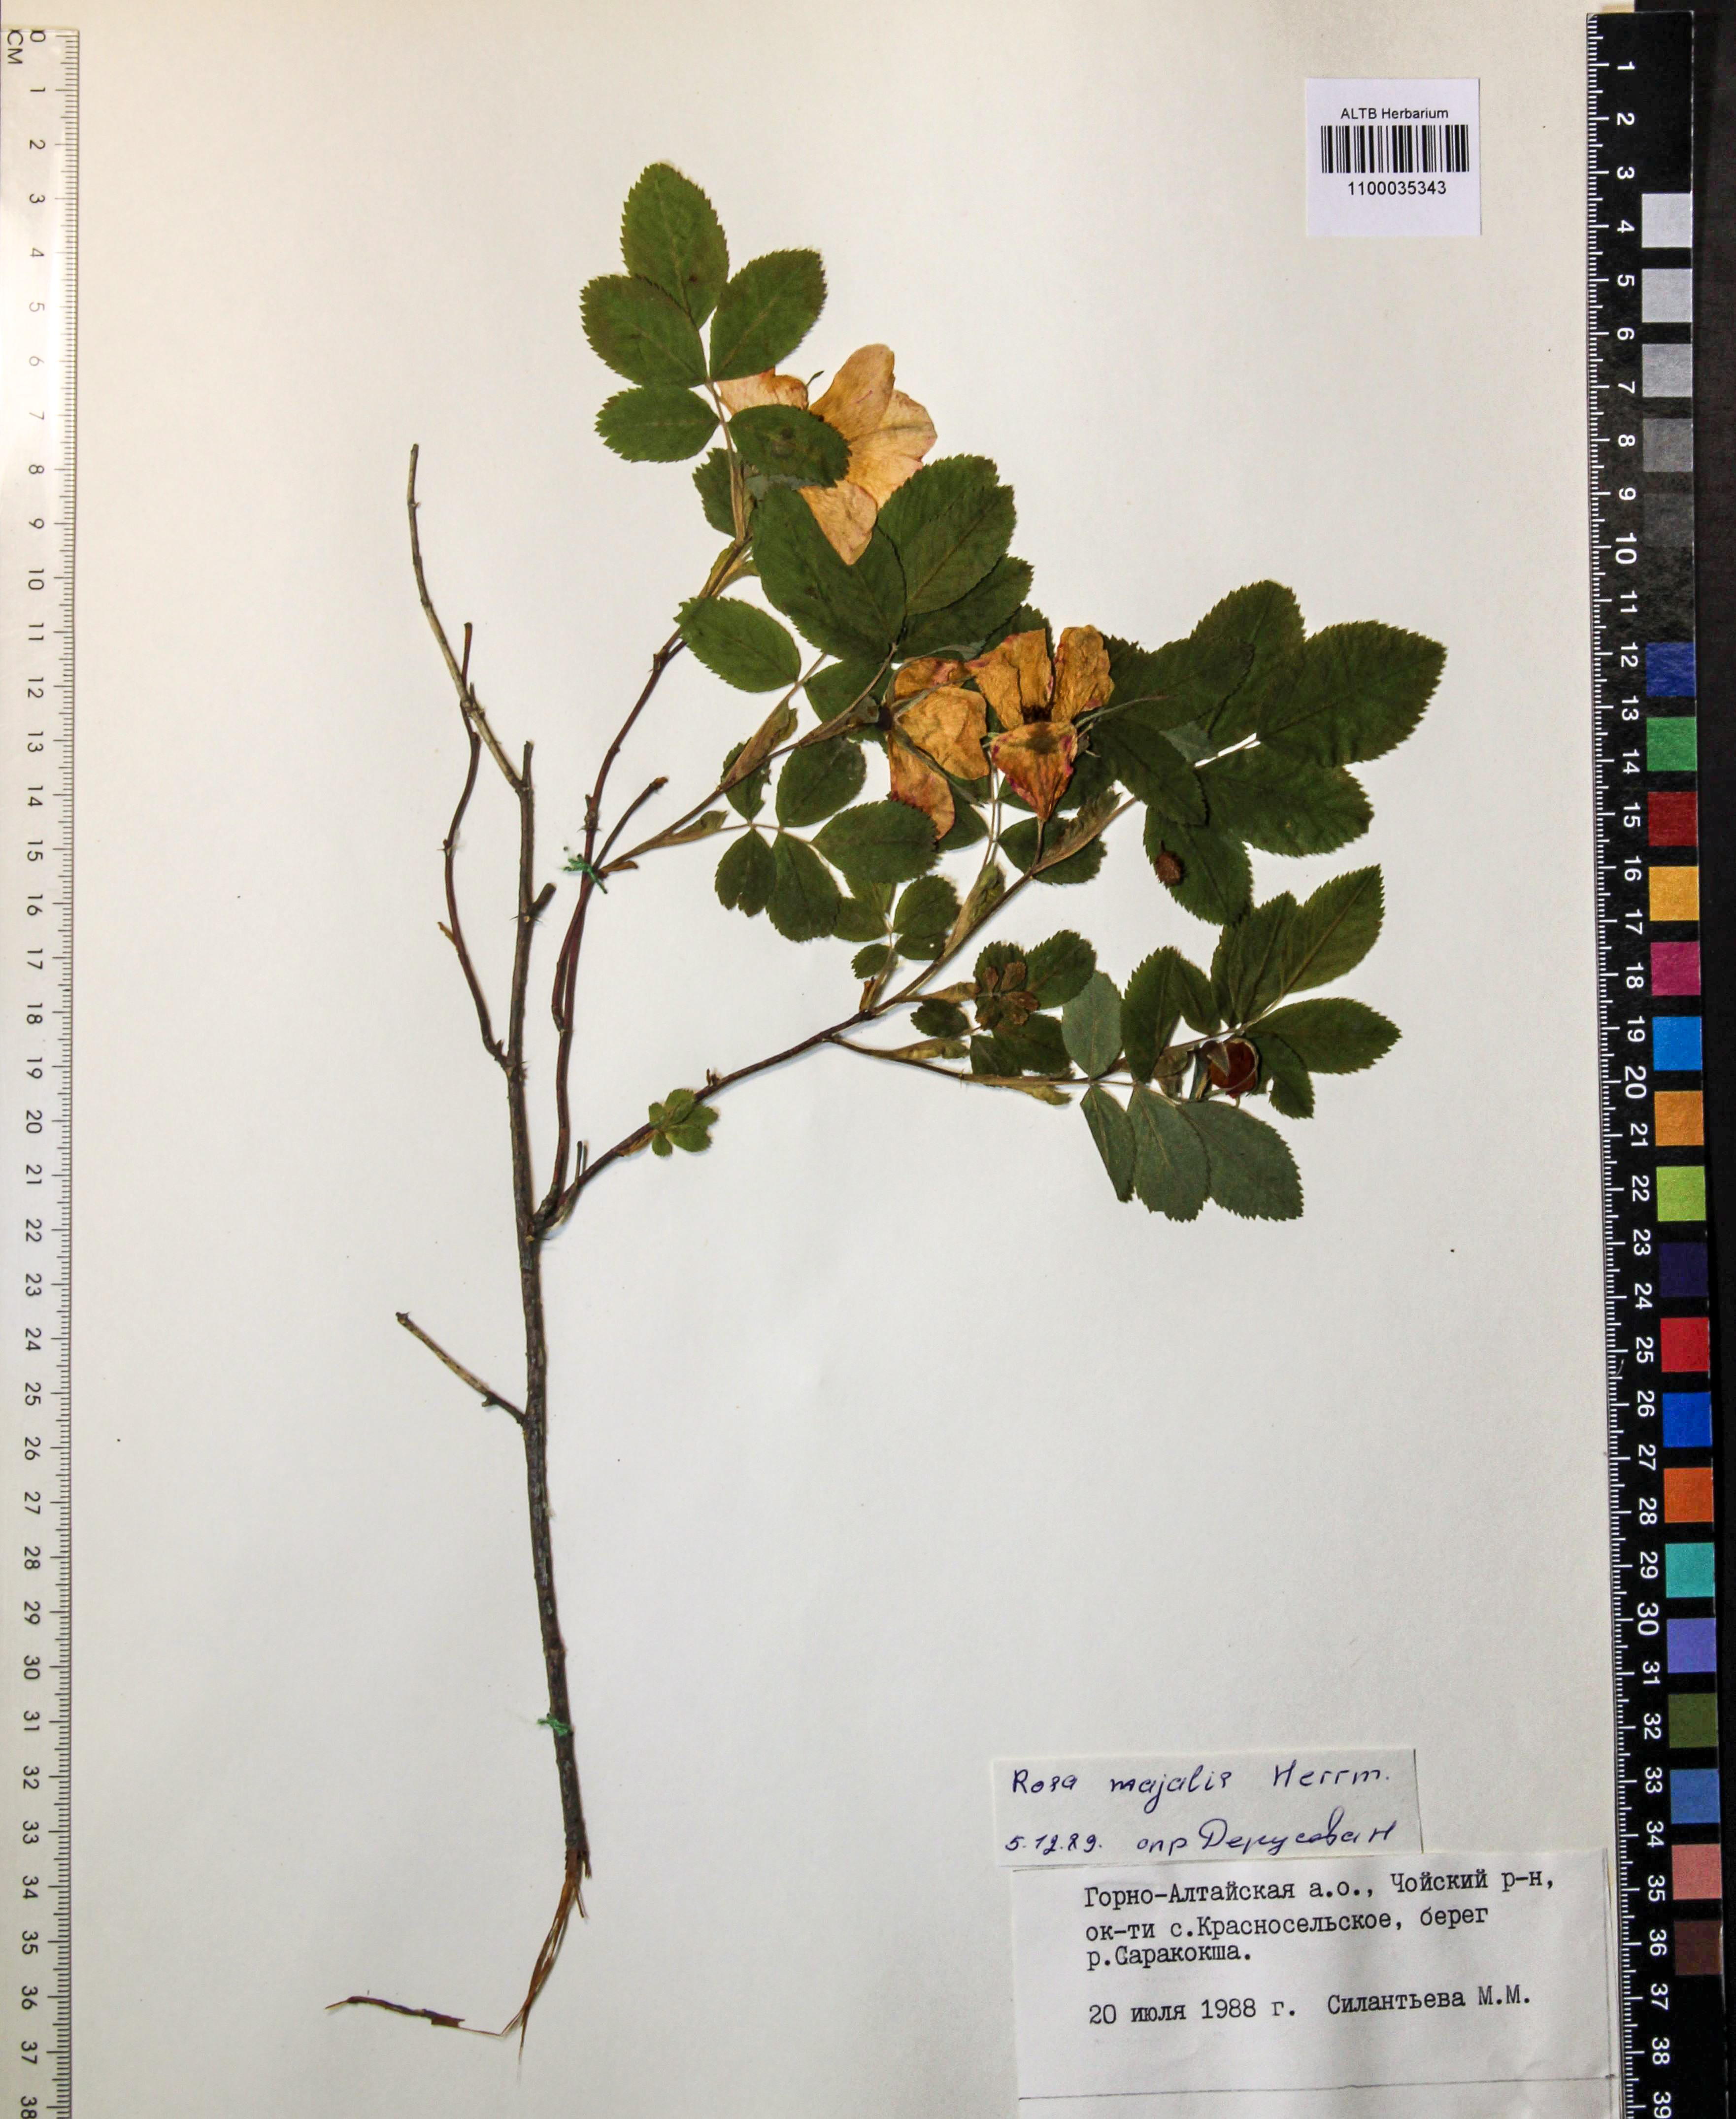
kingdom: Plantae
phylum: Tracheophyta
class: Magnoliopsida
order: Rosales
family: Rosaceae
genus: Rosa
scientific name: Rosa majalis
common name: Cinnamon rose
